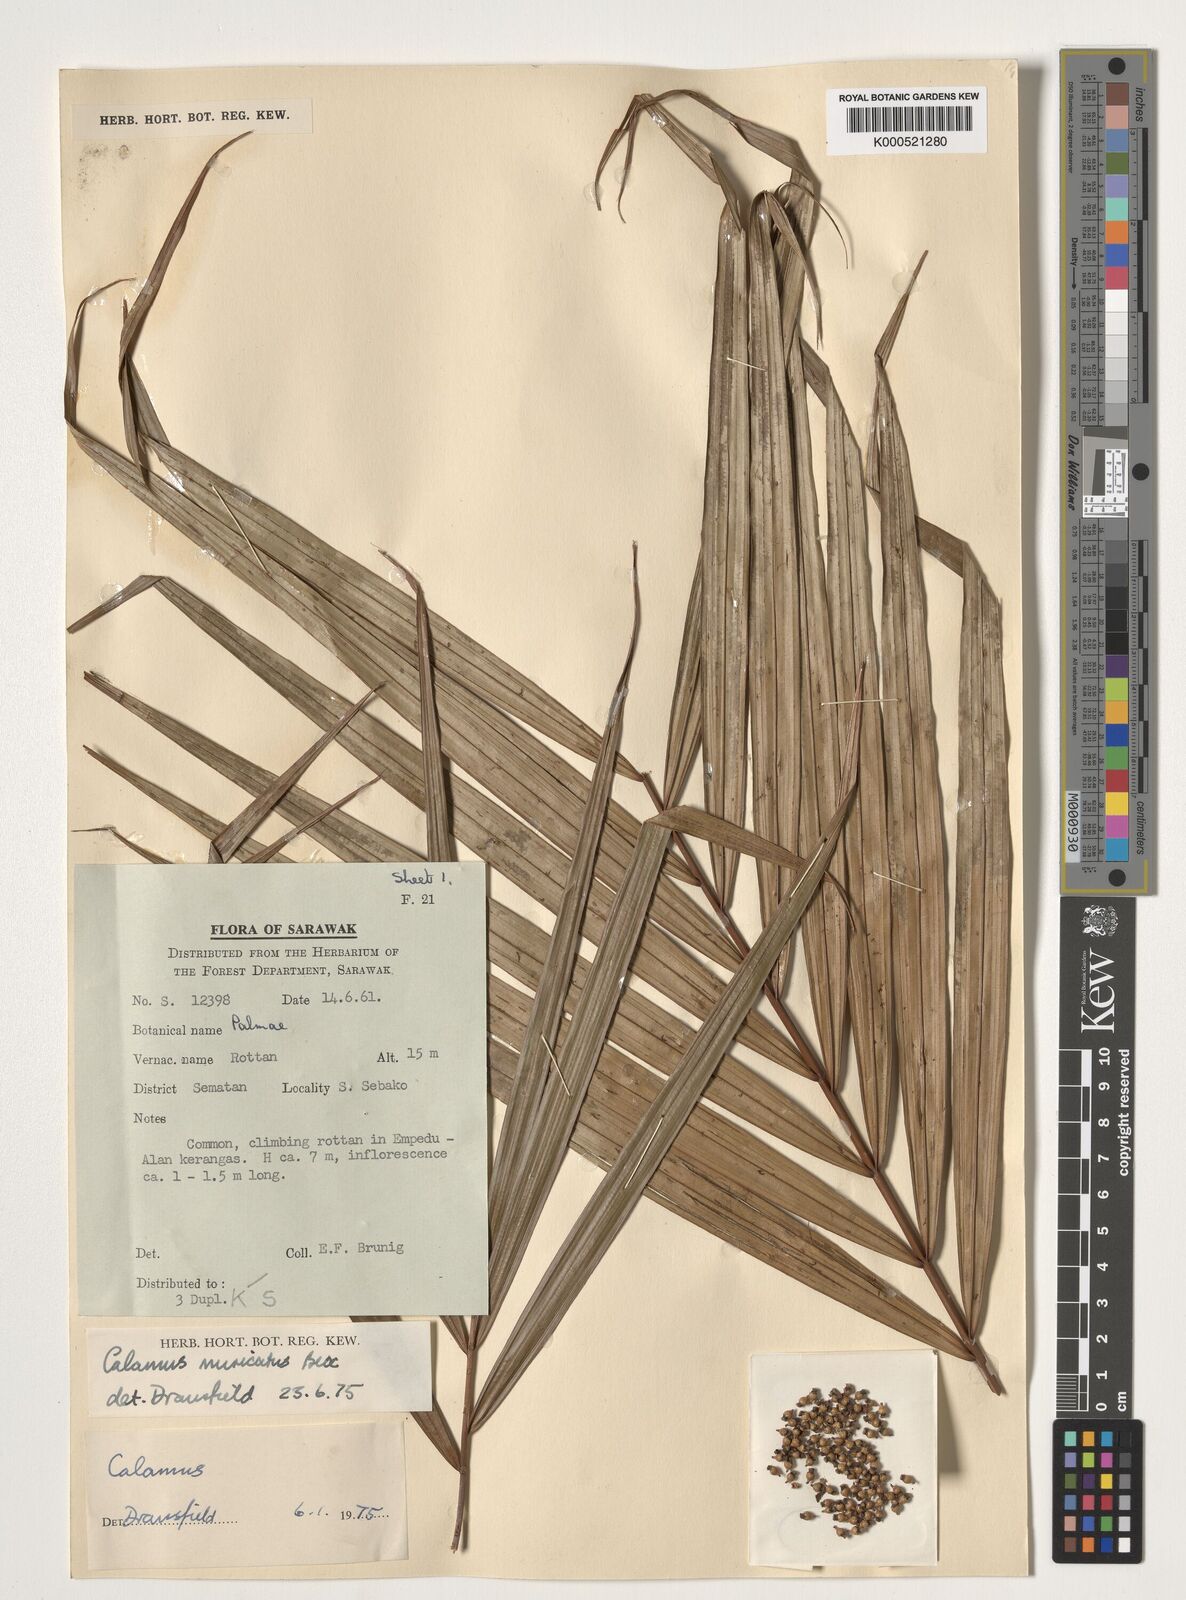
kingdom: Plantae
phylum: Tracheophyta
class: Liliopsida
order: Arecales
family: Arecaceae
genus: Calamus
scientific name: Calamus muricatus
